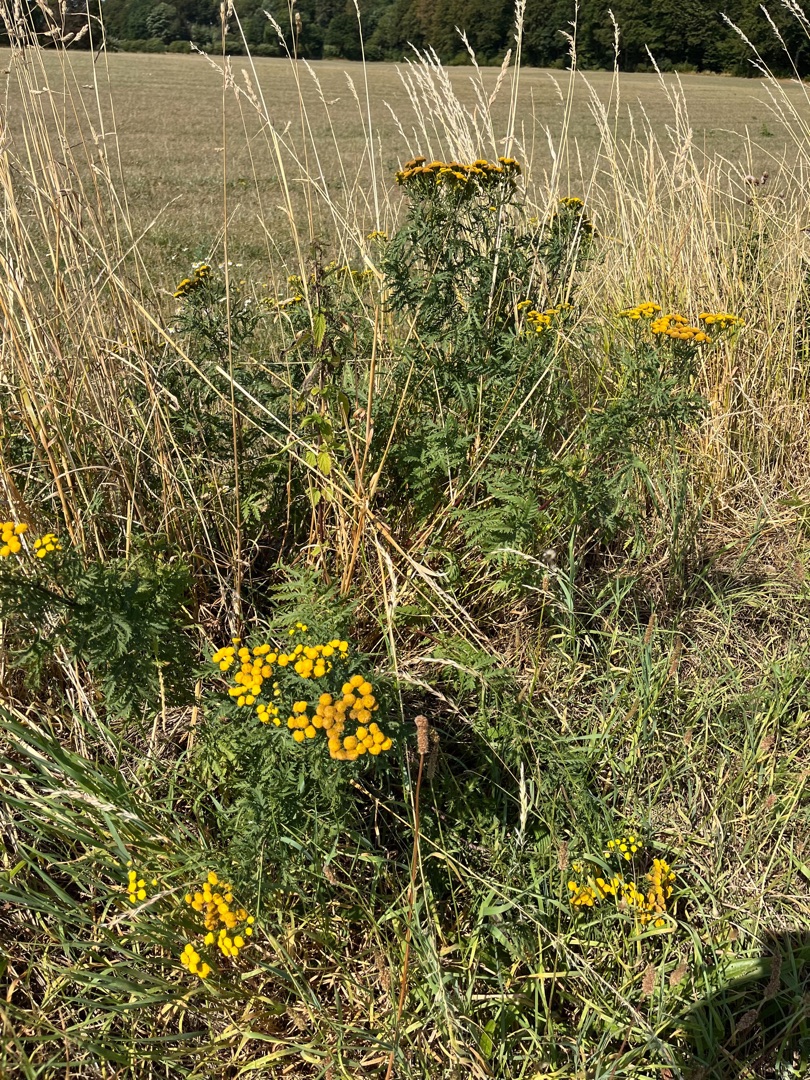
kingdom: Plantae
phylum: Tracheophyta
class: Magnoliopsida
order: Asterales
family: Asteraceae
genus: Tanacetum
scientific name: Tanacetum vulgare
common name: Rejnfan
